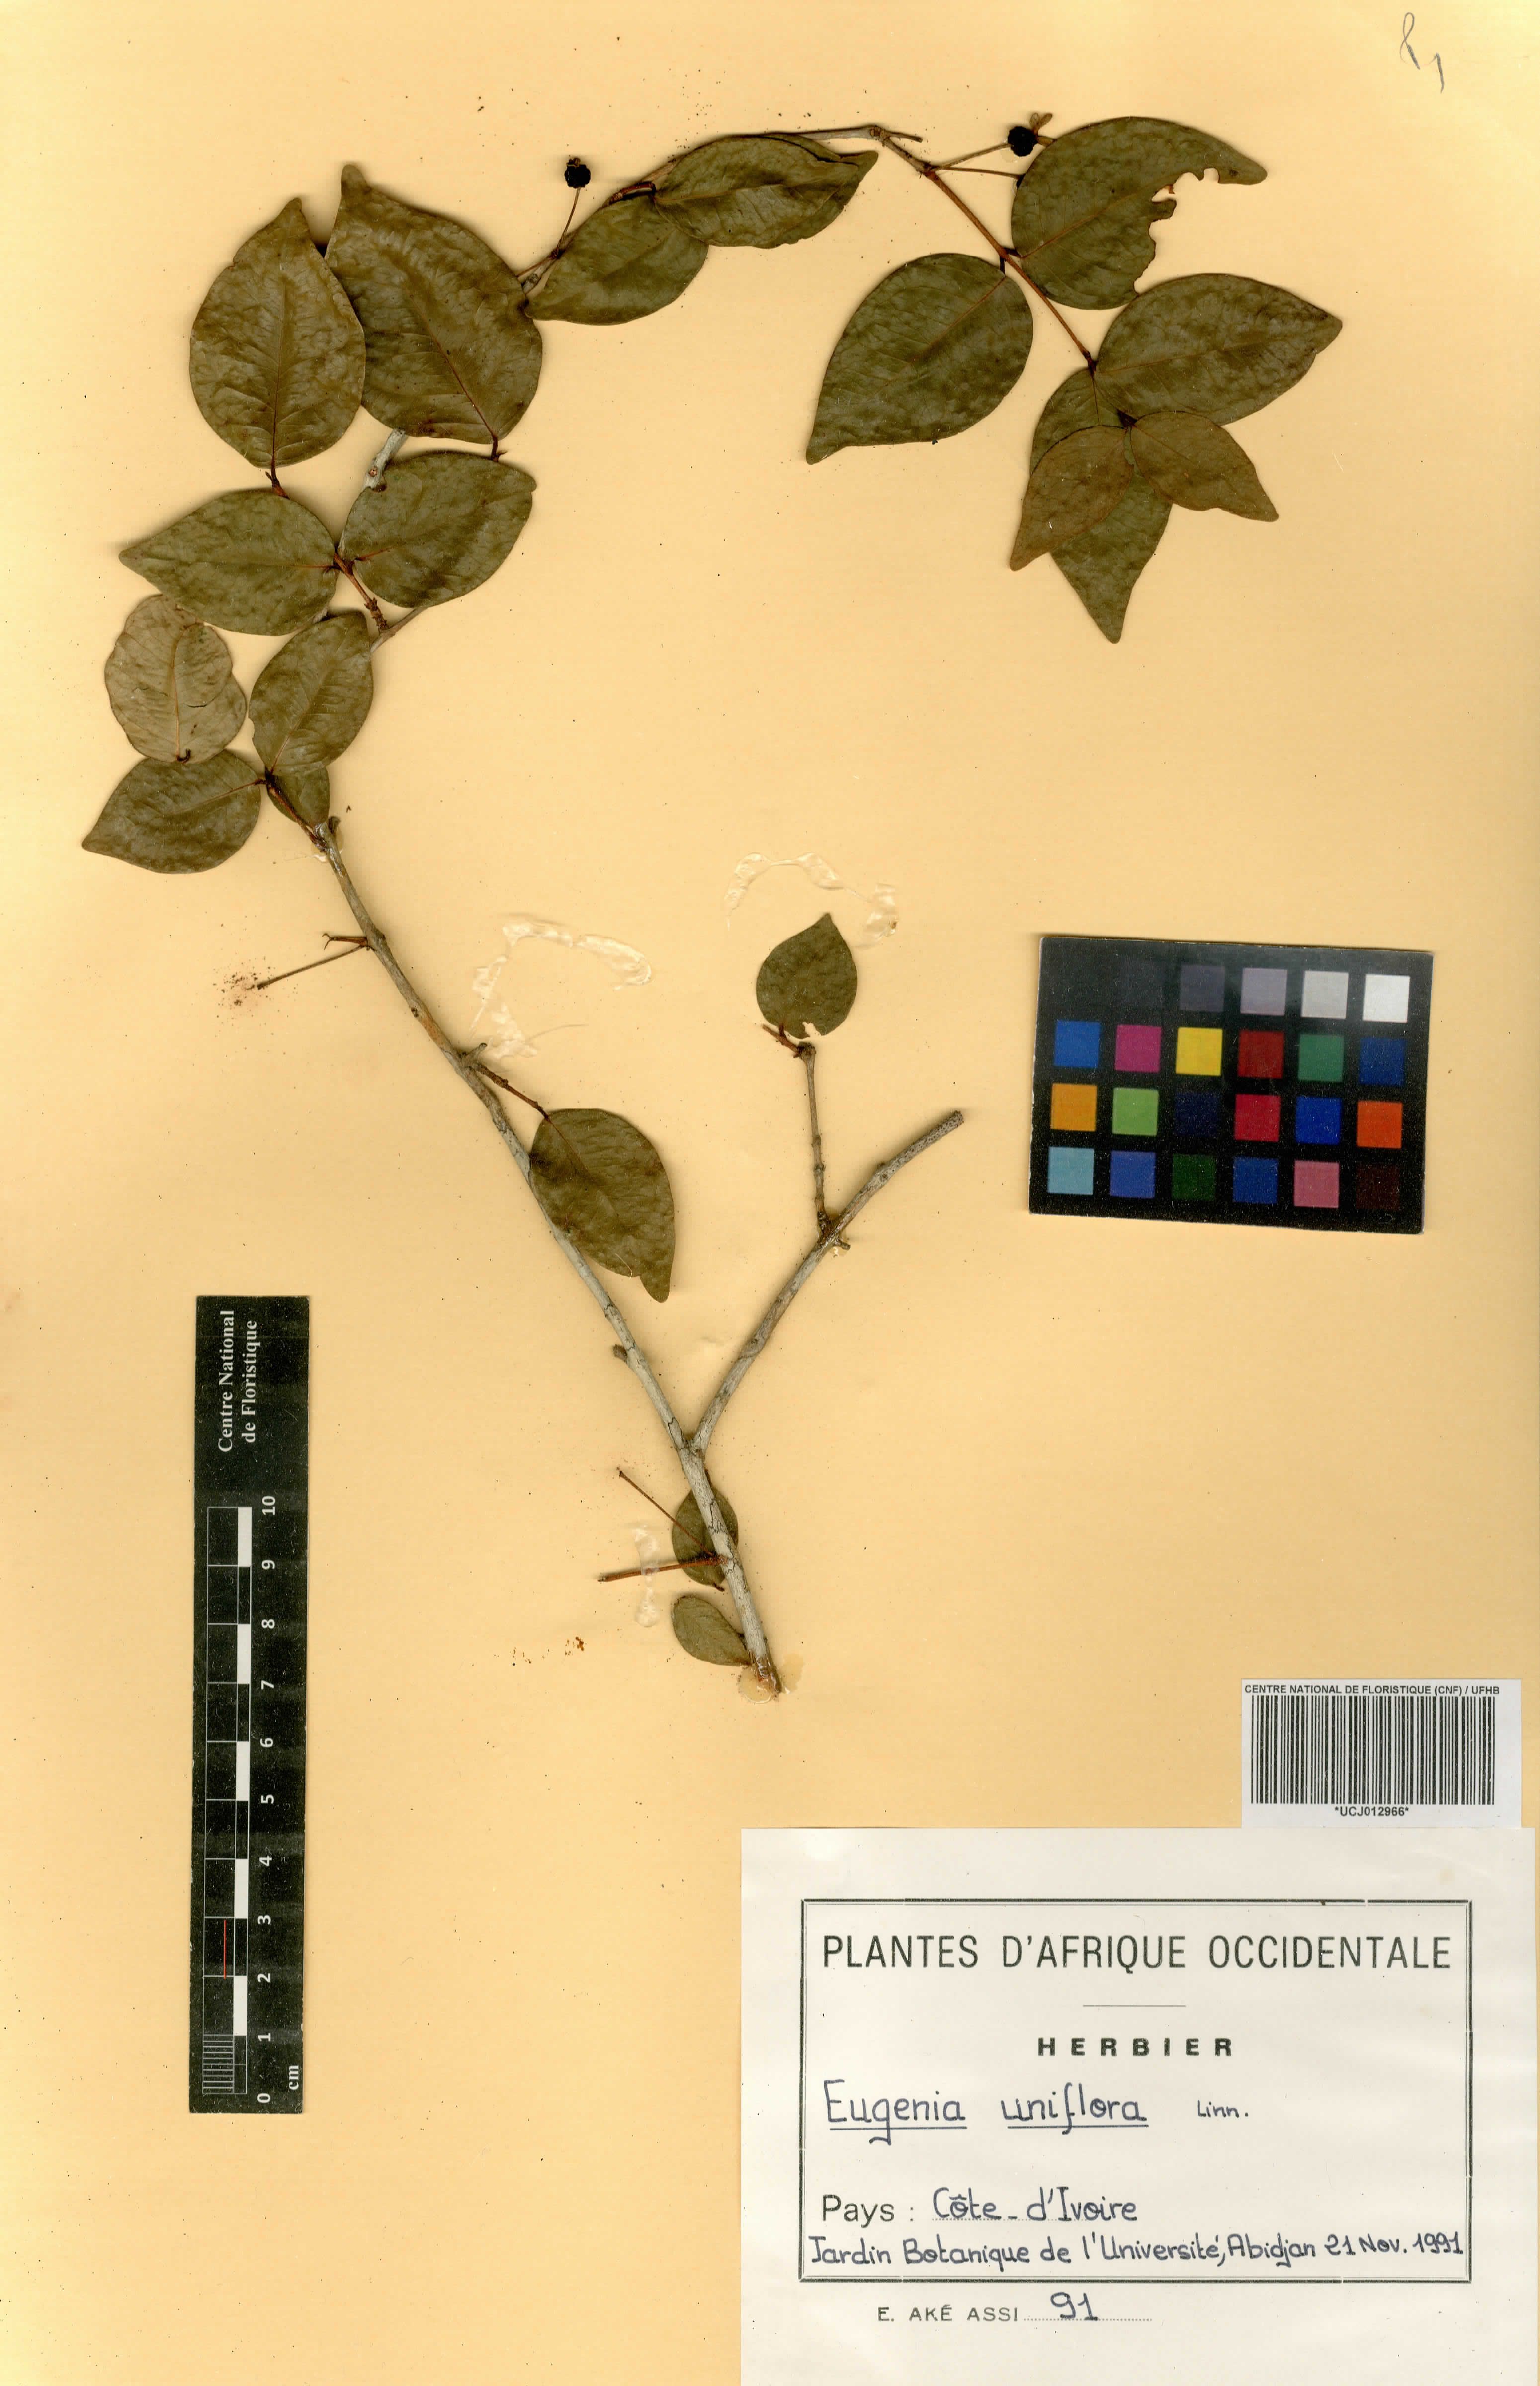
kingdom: Plantae
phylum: Tracheophyta
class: Magnoliopsida
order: Myrtales
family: Myrtaceae
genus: Eugenia
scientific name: Eugenia uniflora
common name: Surinam cherry
